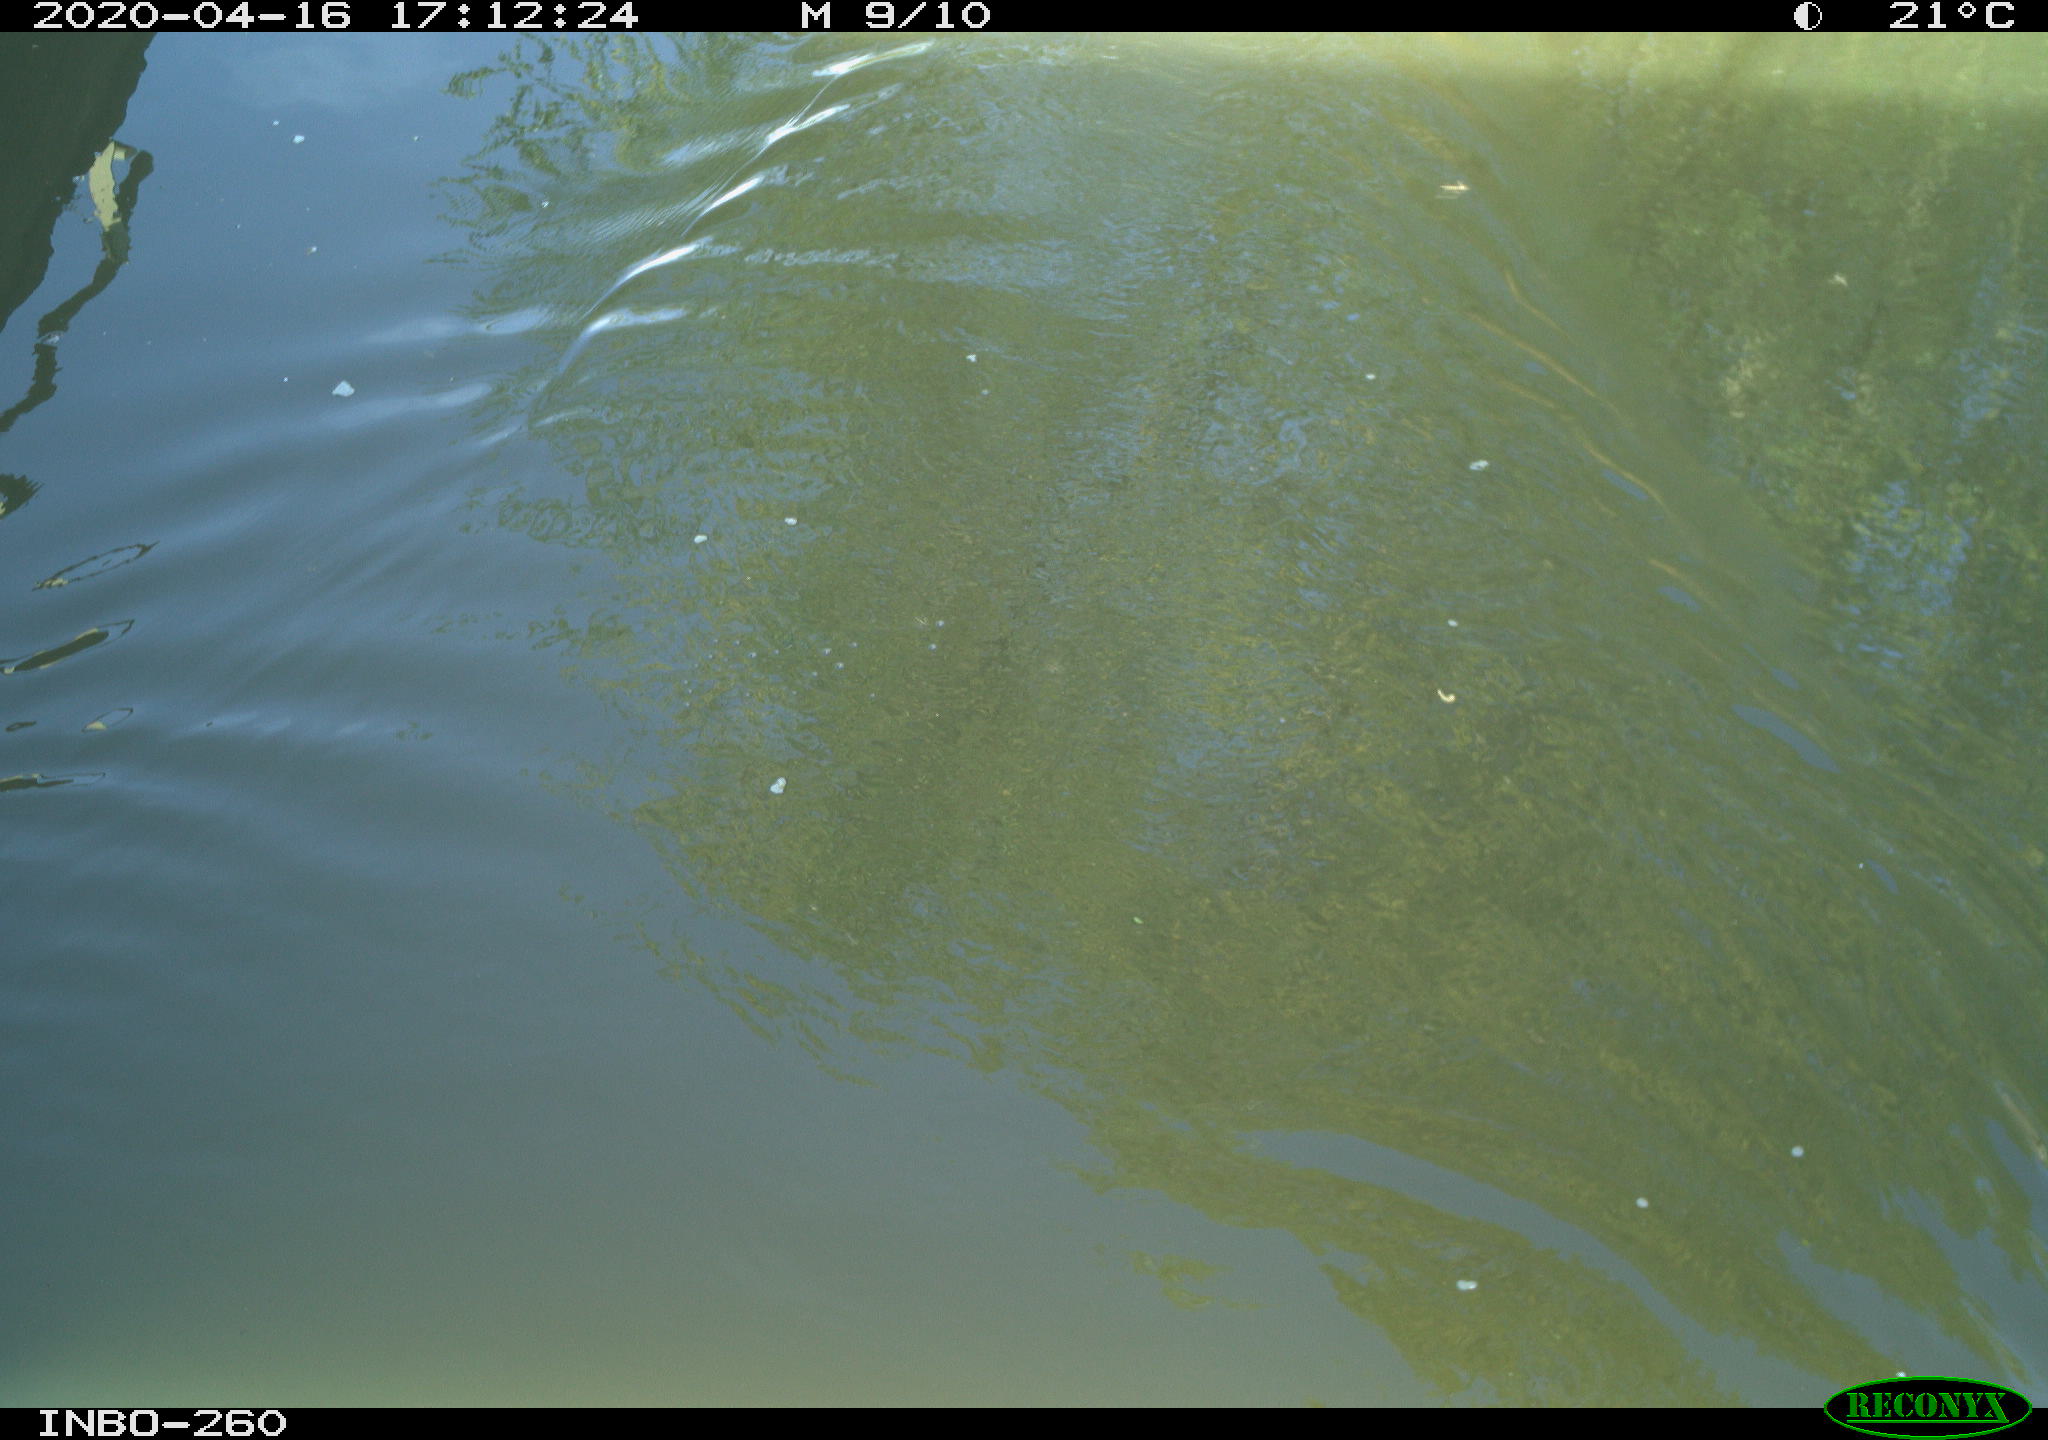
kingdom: Animalia
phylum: Chordata
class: Aves
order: Anseriformes
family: Anatidae
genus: Anas
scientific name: Anas platyrhynchos
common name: Mallard
